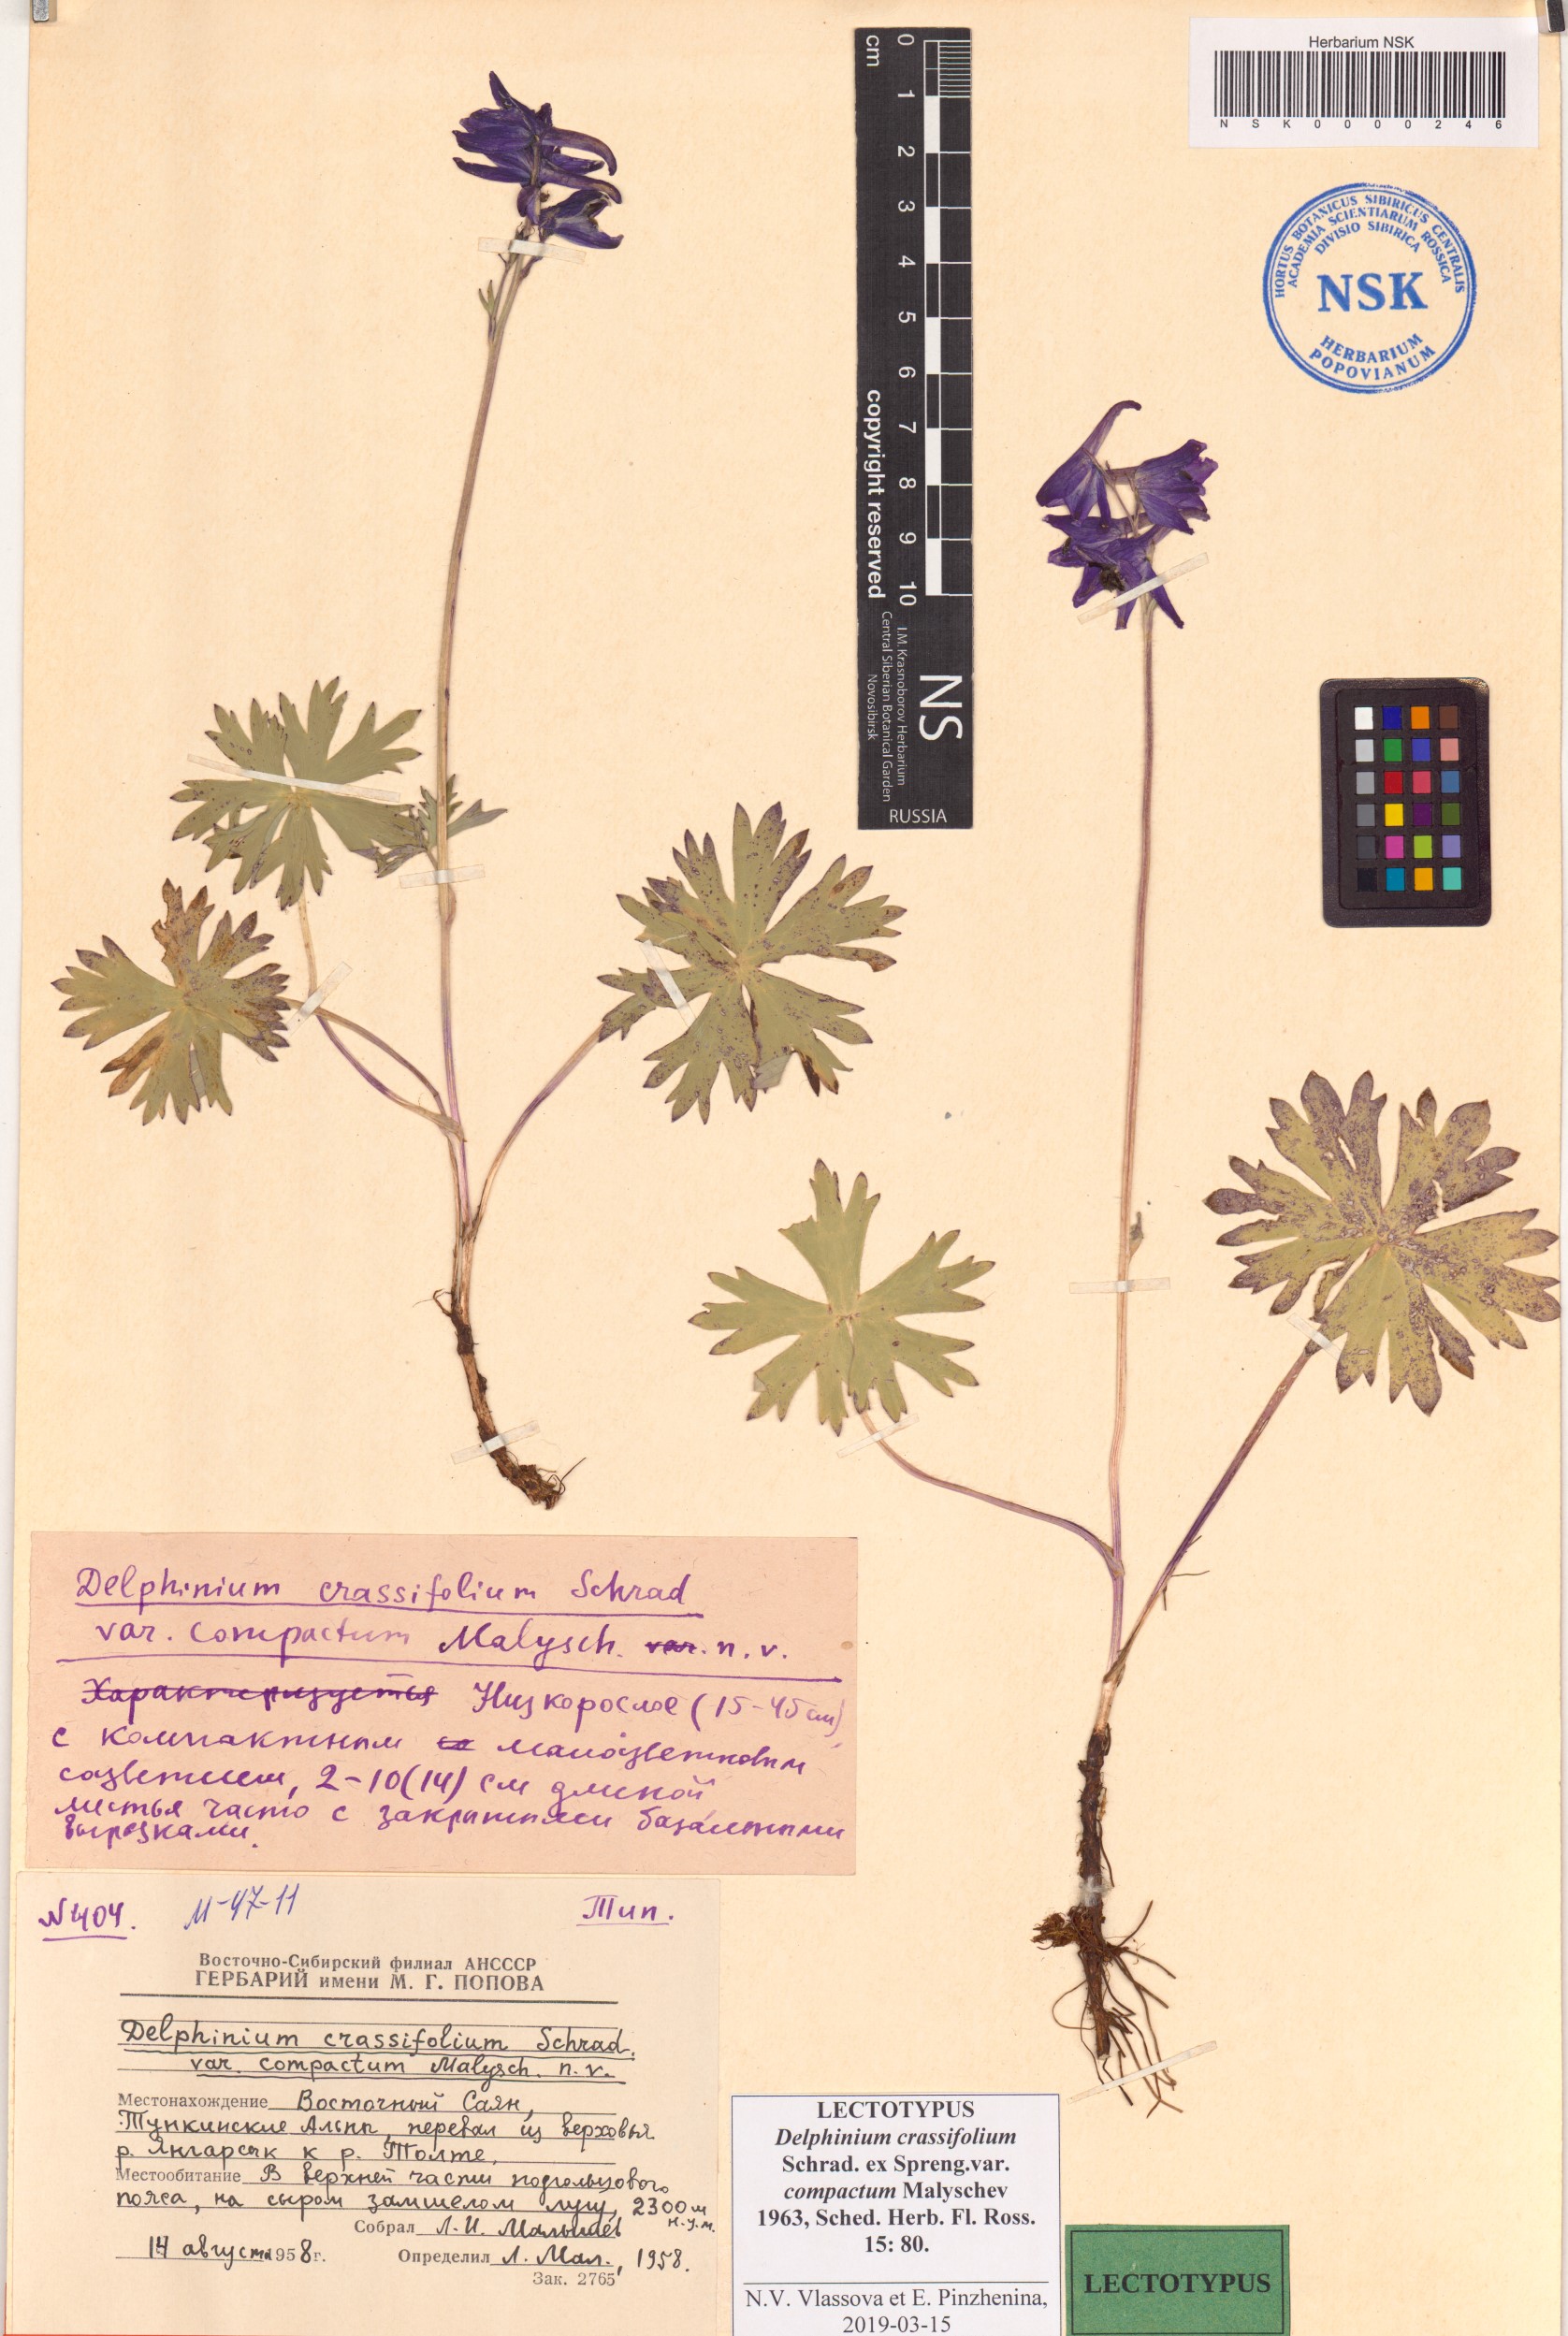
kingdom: Plantae
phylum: Tracheophyta
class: Magnoliopsida
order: Ranunculales
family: Ranunculaceae
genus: Delphinium
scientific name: Delphinium crassifolium
